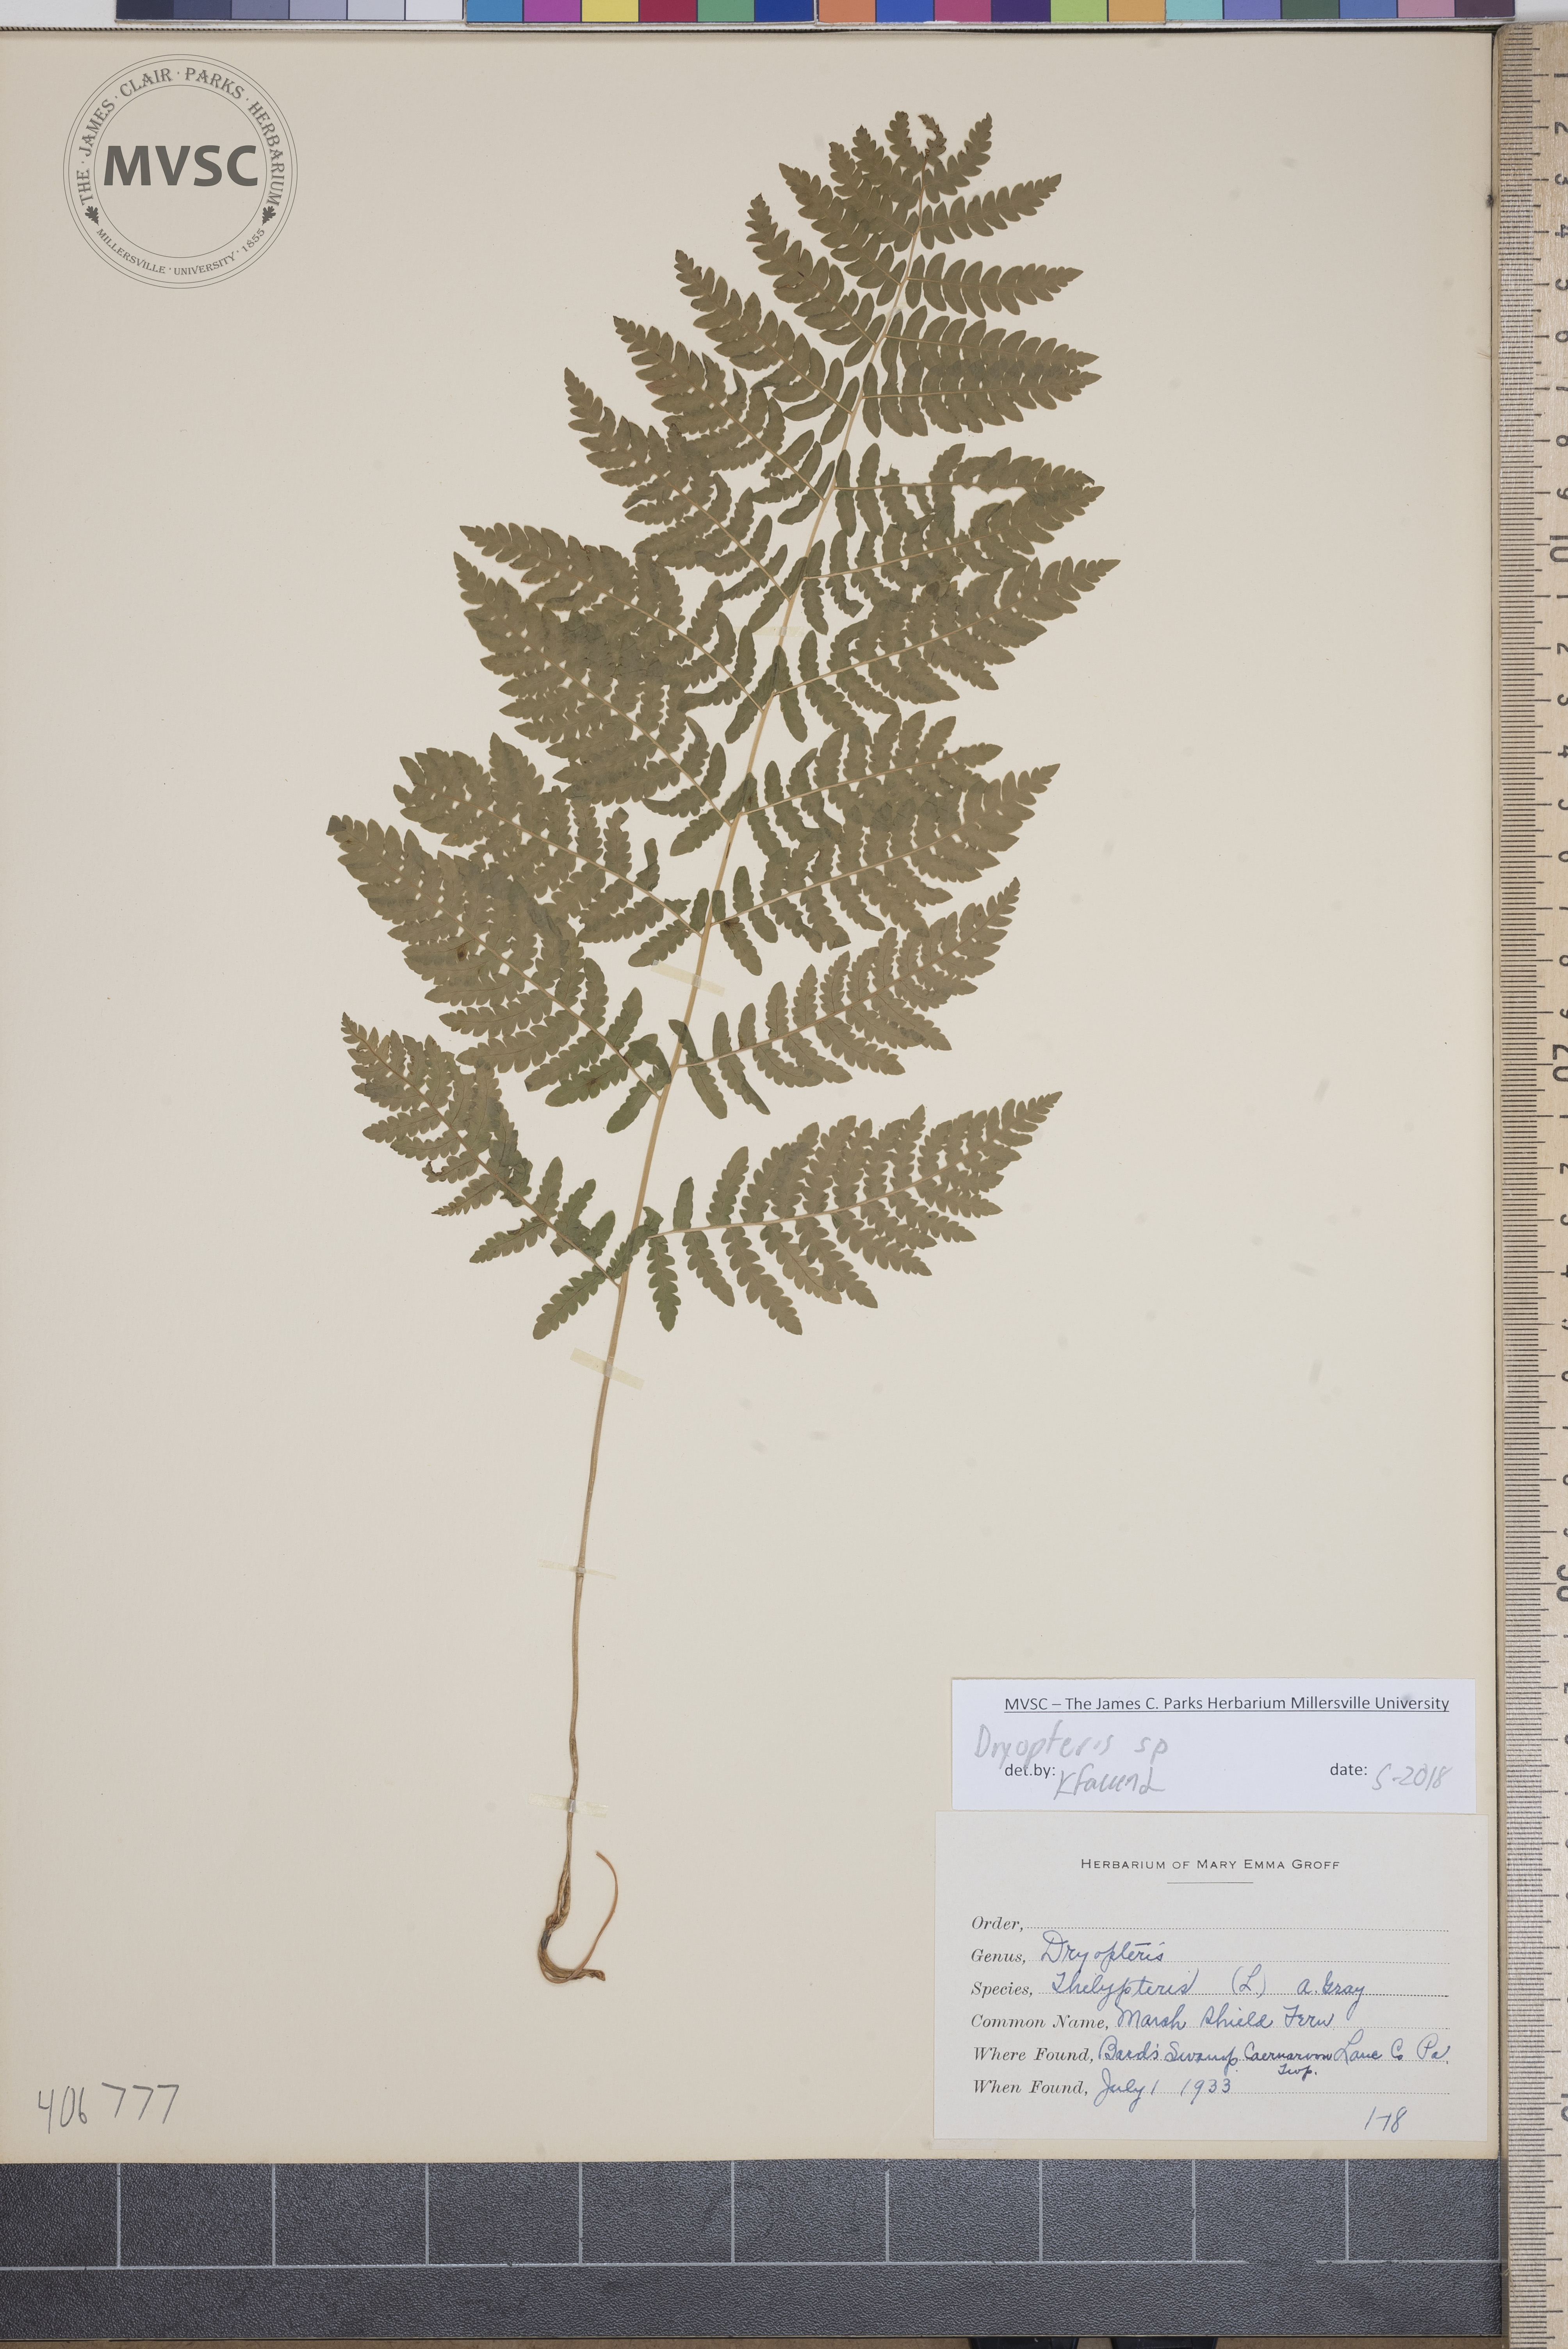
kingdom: Plantae
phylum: Tracheophyta
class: Polypodiopsida
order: Polypodiales
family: Dryopteridaceae
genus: Dryopteris
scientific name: Dryopteris
